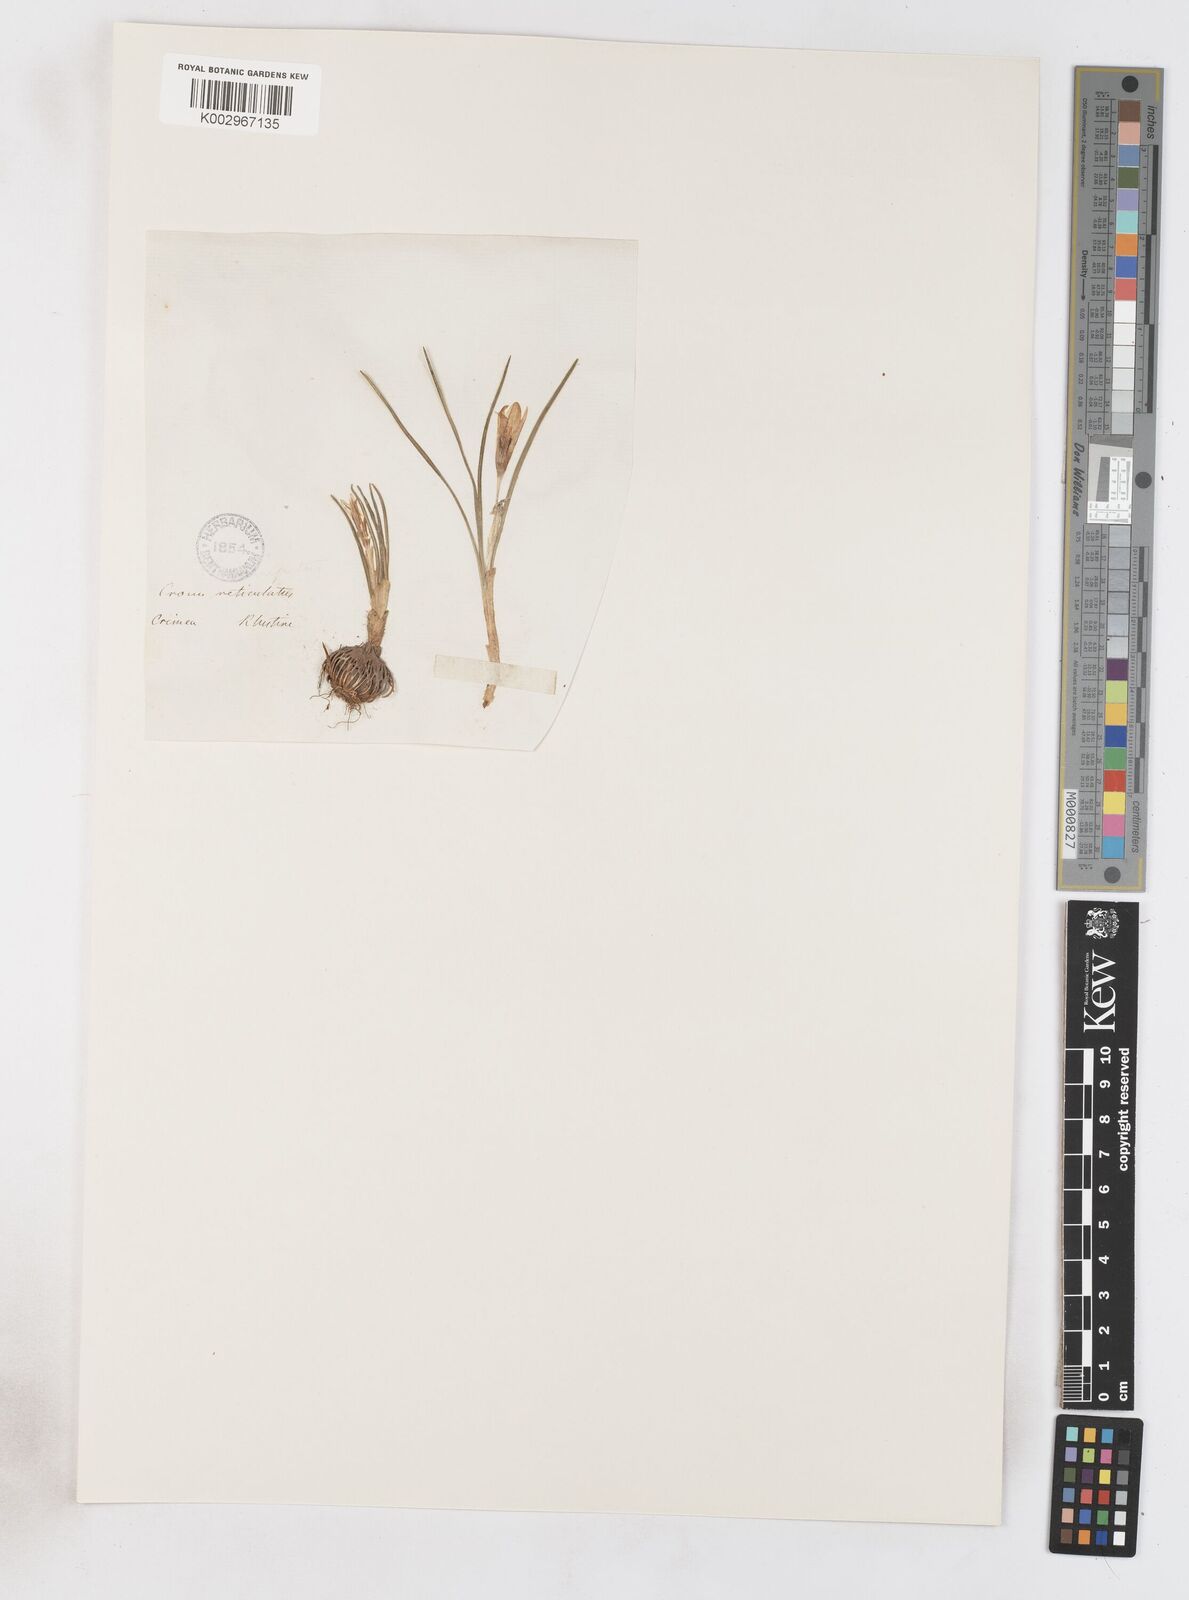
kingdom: Plantae
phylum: Tracheophyta
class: Liliopsida
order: Asparagales
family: Iridaceae
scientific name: Iridaceae
